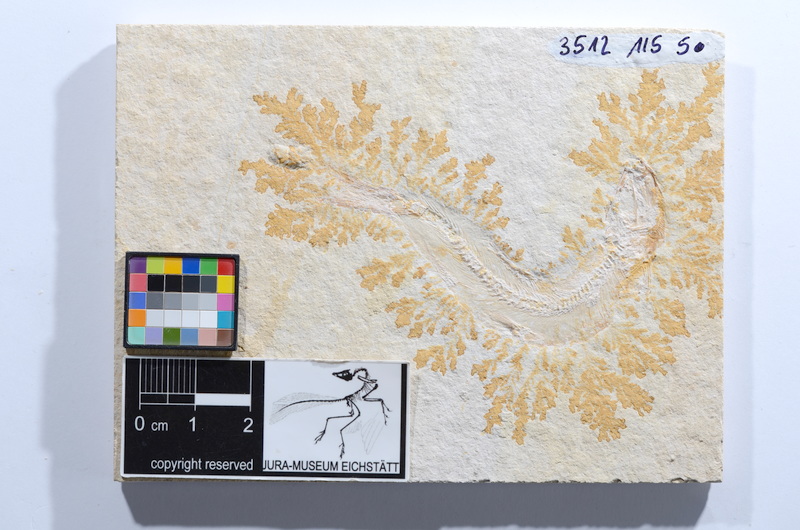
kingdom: Animalia
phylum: Chordata
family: Ascalaboidae
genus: Tharsis
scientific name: Tharsis dubius
